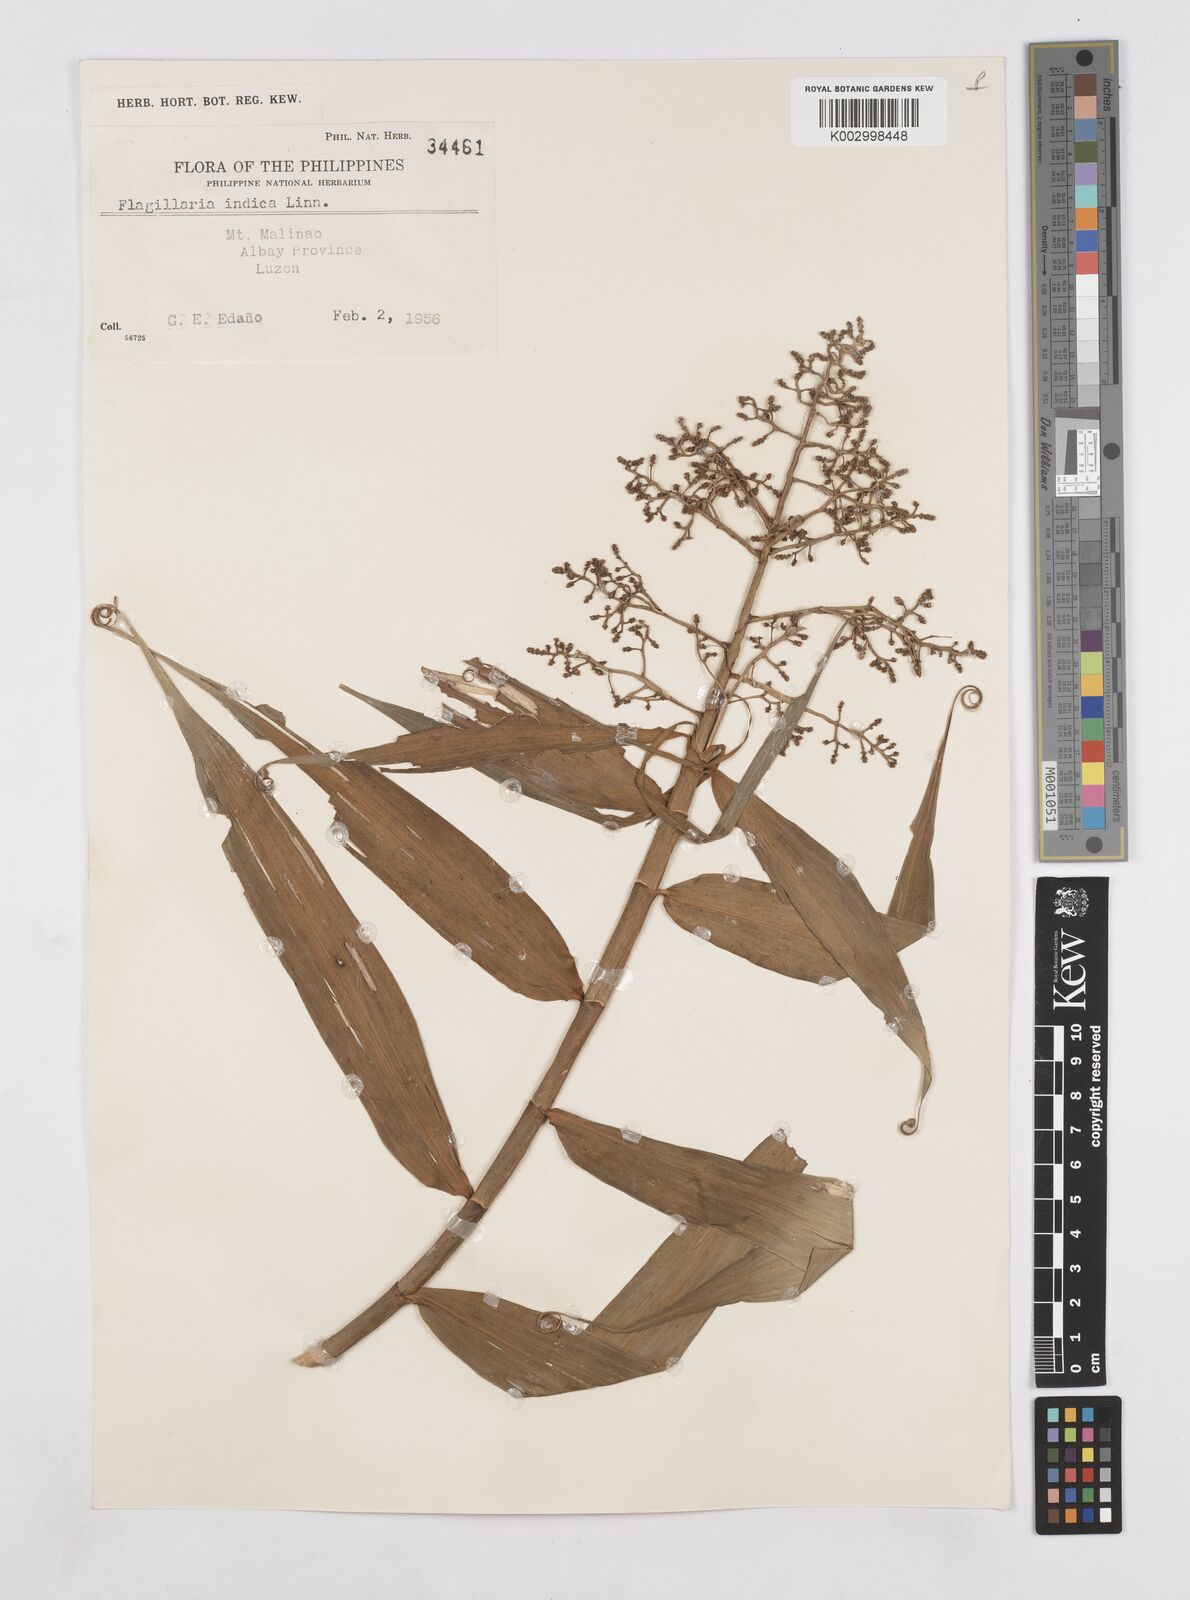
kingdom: Plantae
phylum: Tracheophyta
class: Liliopsida
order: Poales
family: Flagellariaceae
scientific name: Flagellariaceae
